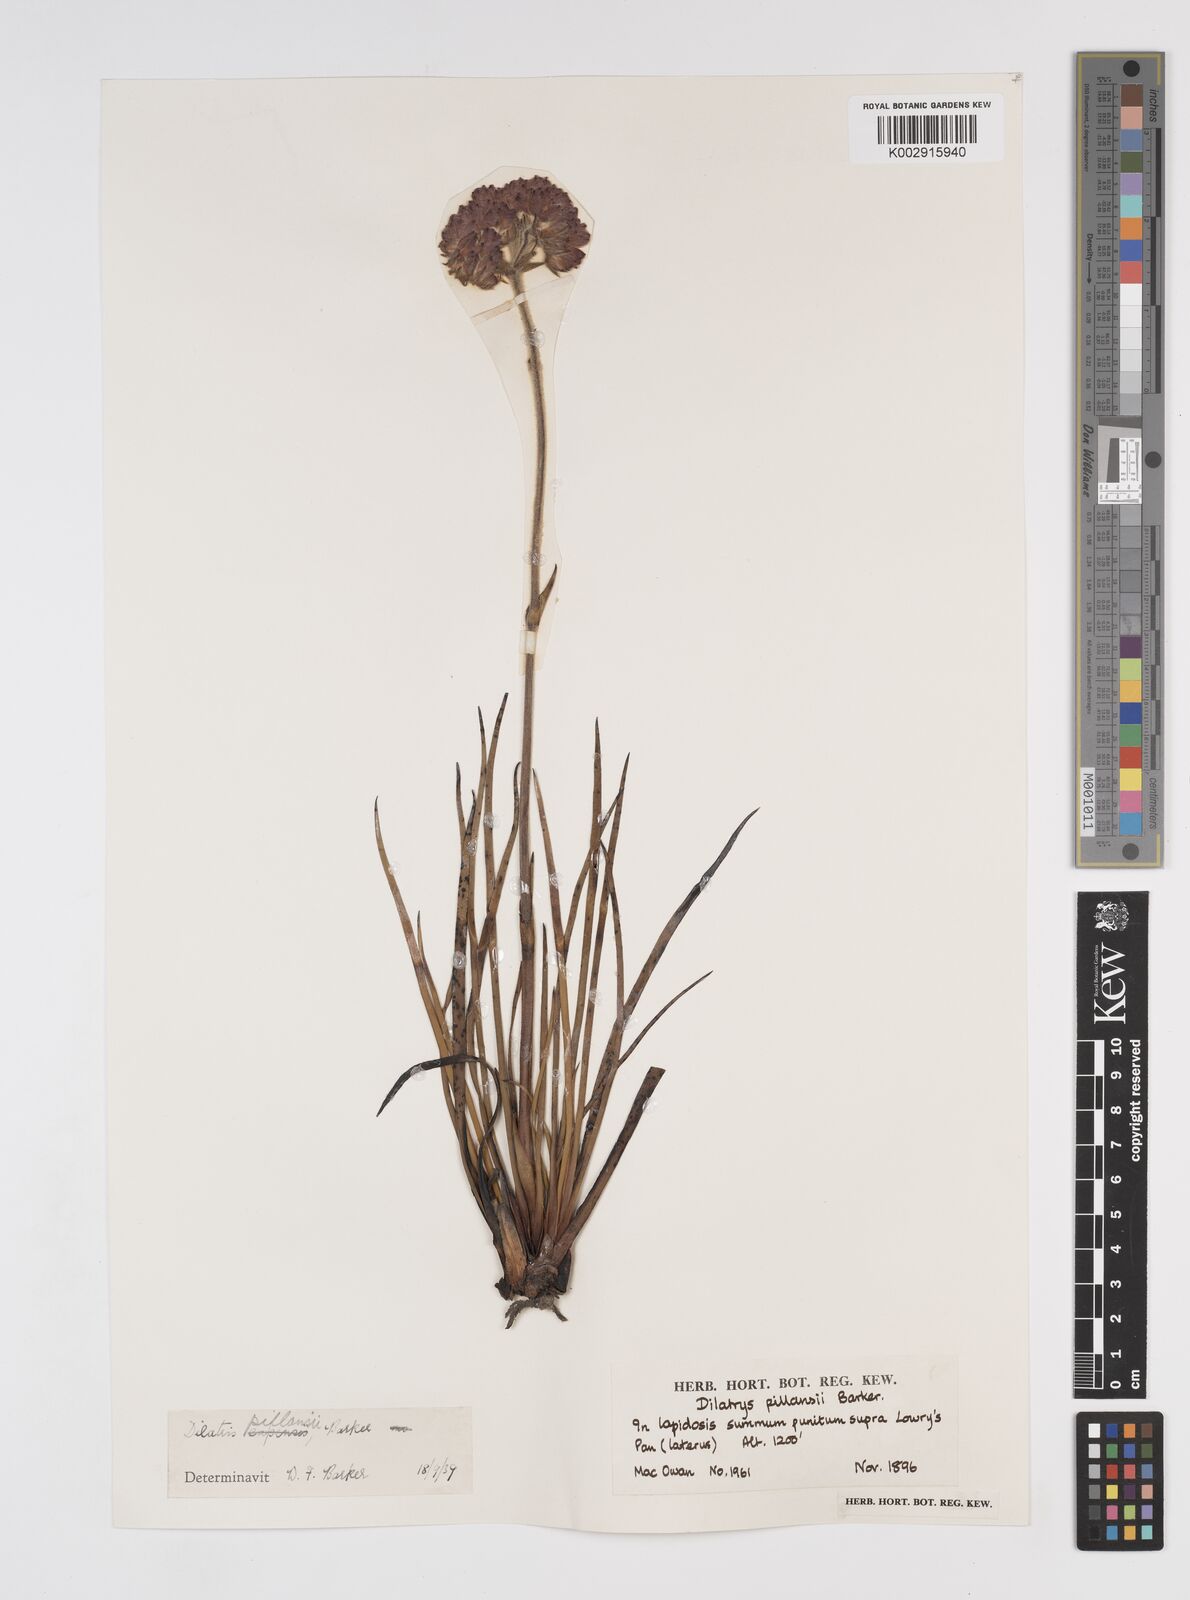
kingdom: Plantae
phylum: Tracheophyta
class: Liliopsida
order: Commelinales
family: Haemodoraceae
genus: Dilatris
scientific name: Dilatris pillansii
